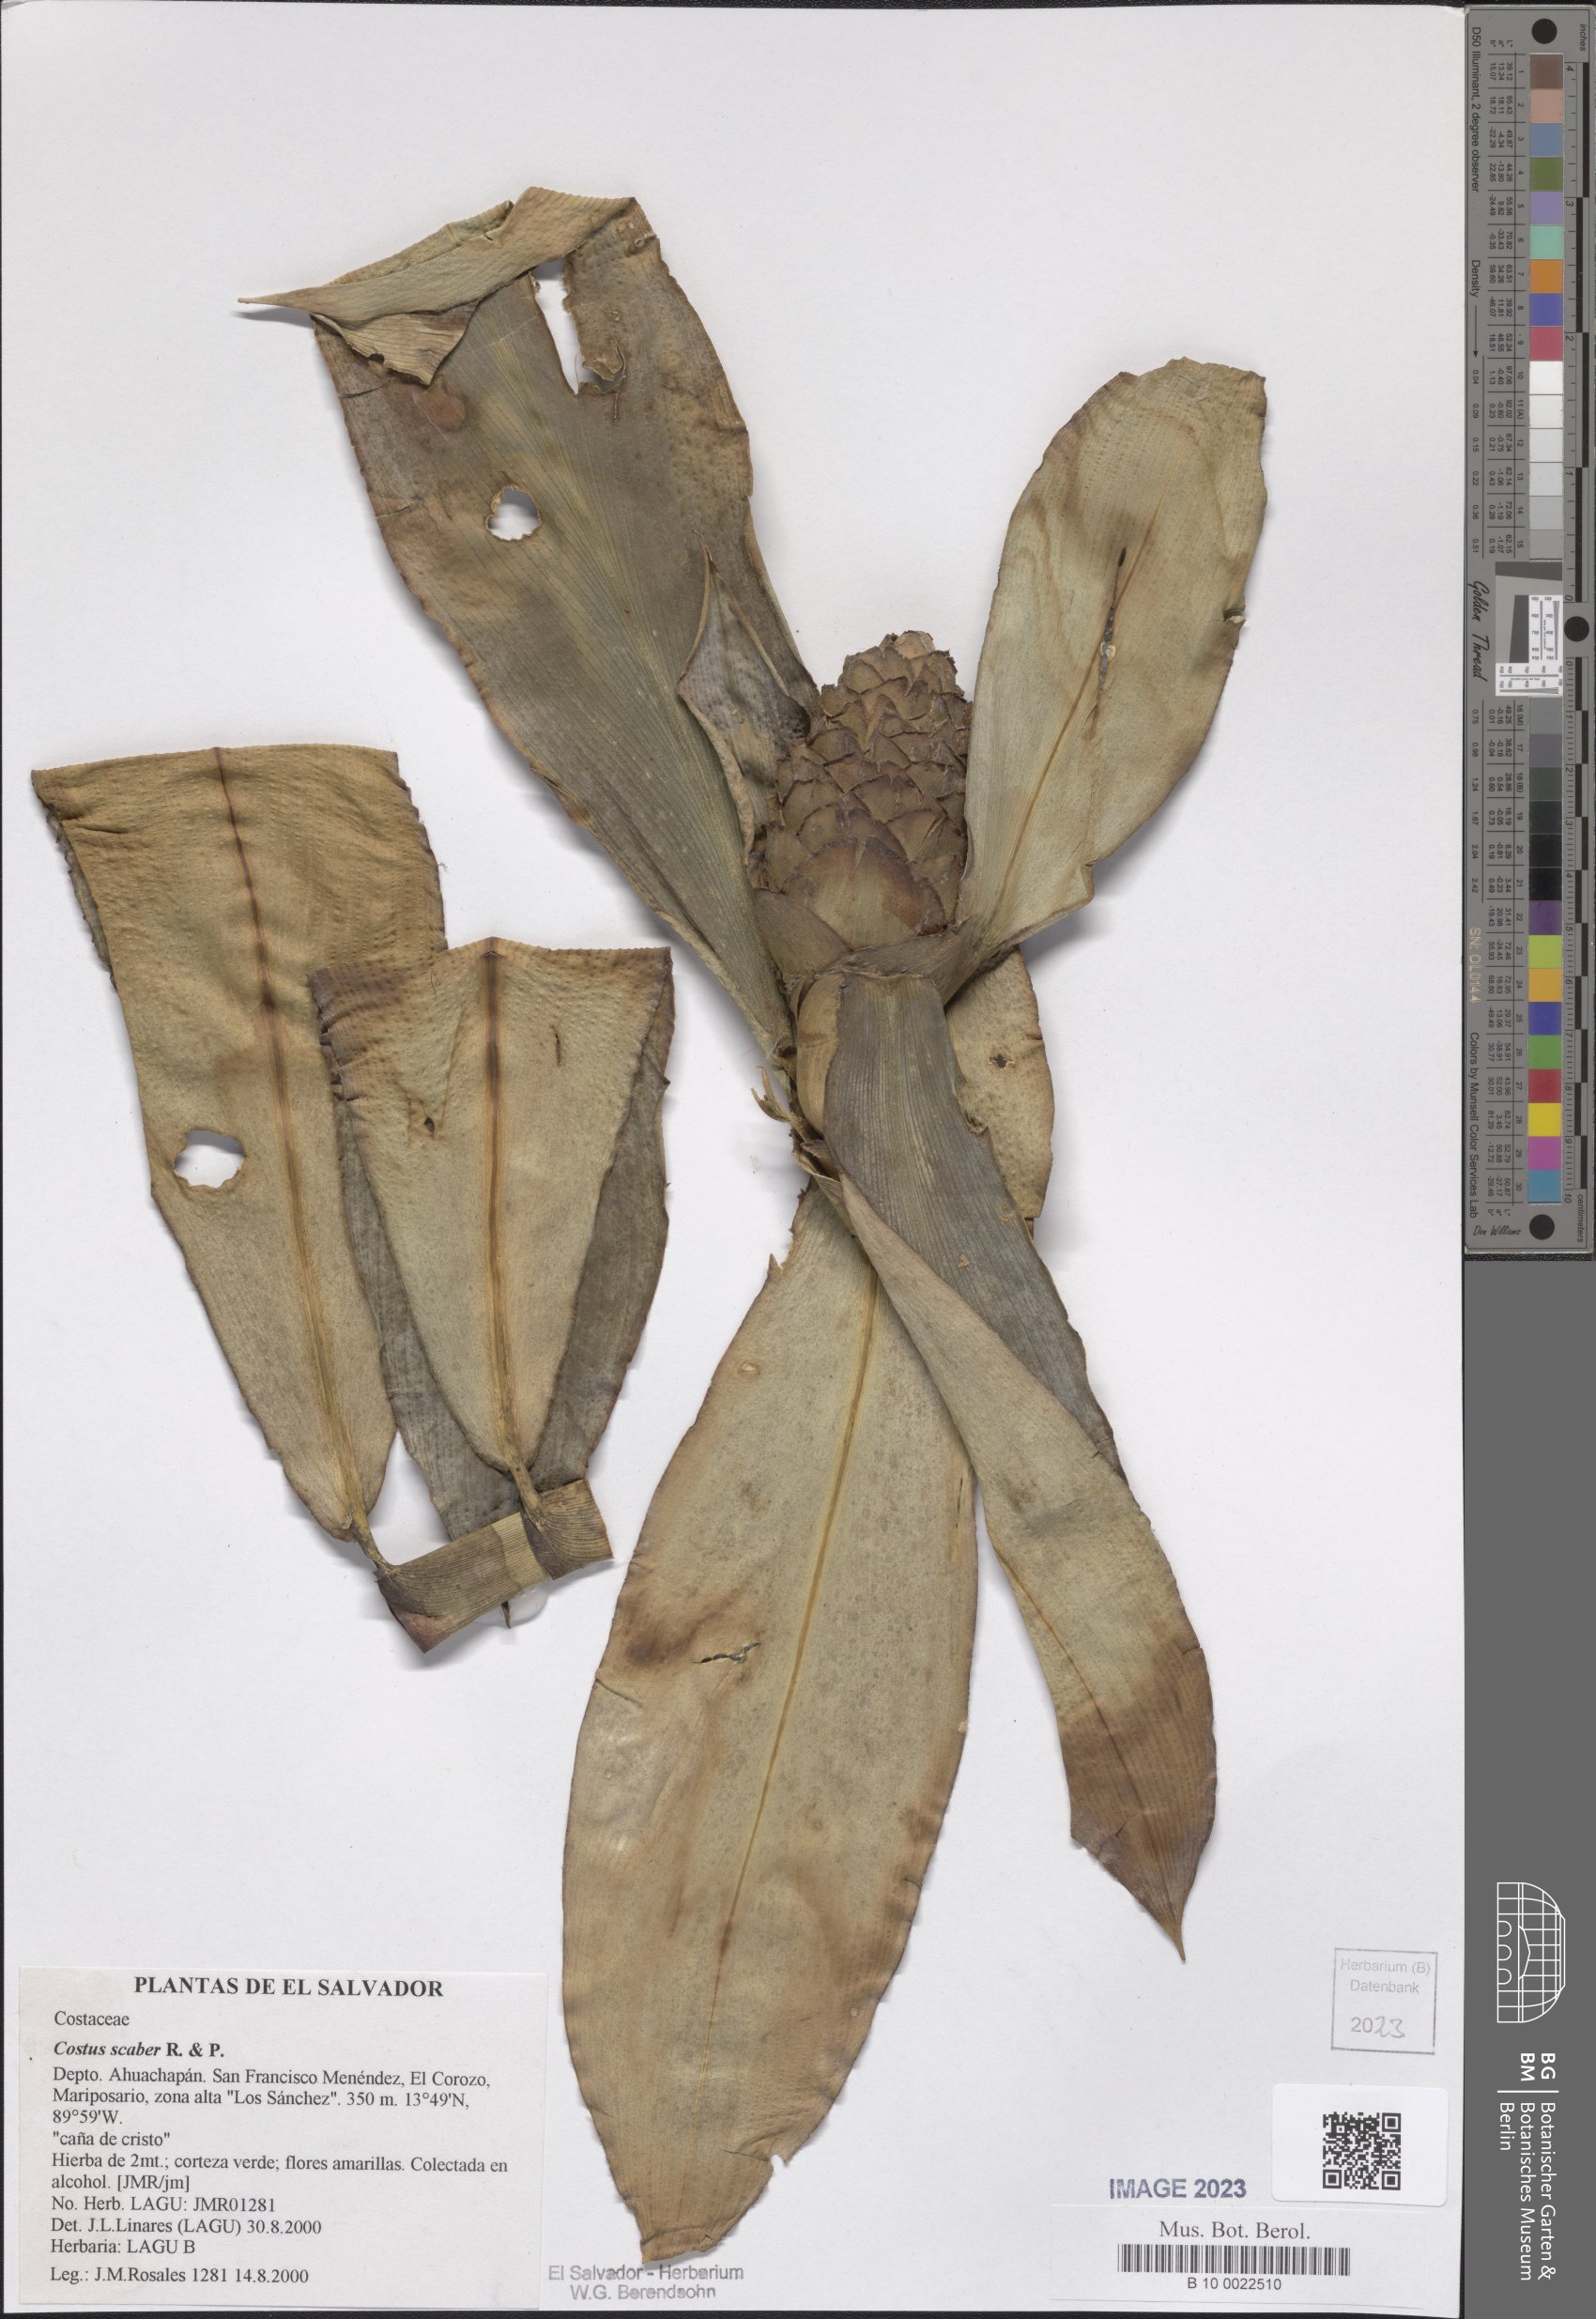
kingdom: Plantae
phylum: Tracheophyta
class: Liliopsida
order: Zingiberales
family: Costaceae
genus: Costus
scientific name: Costus scaber
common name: Spiral head ginger
